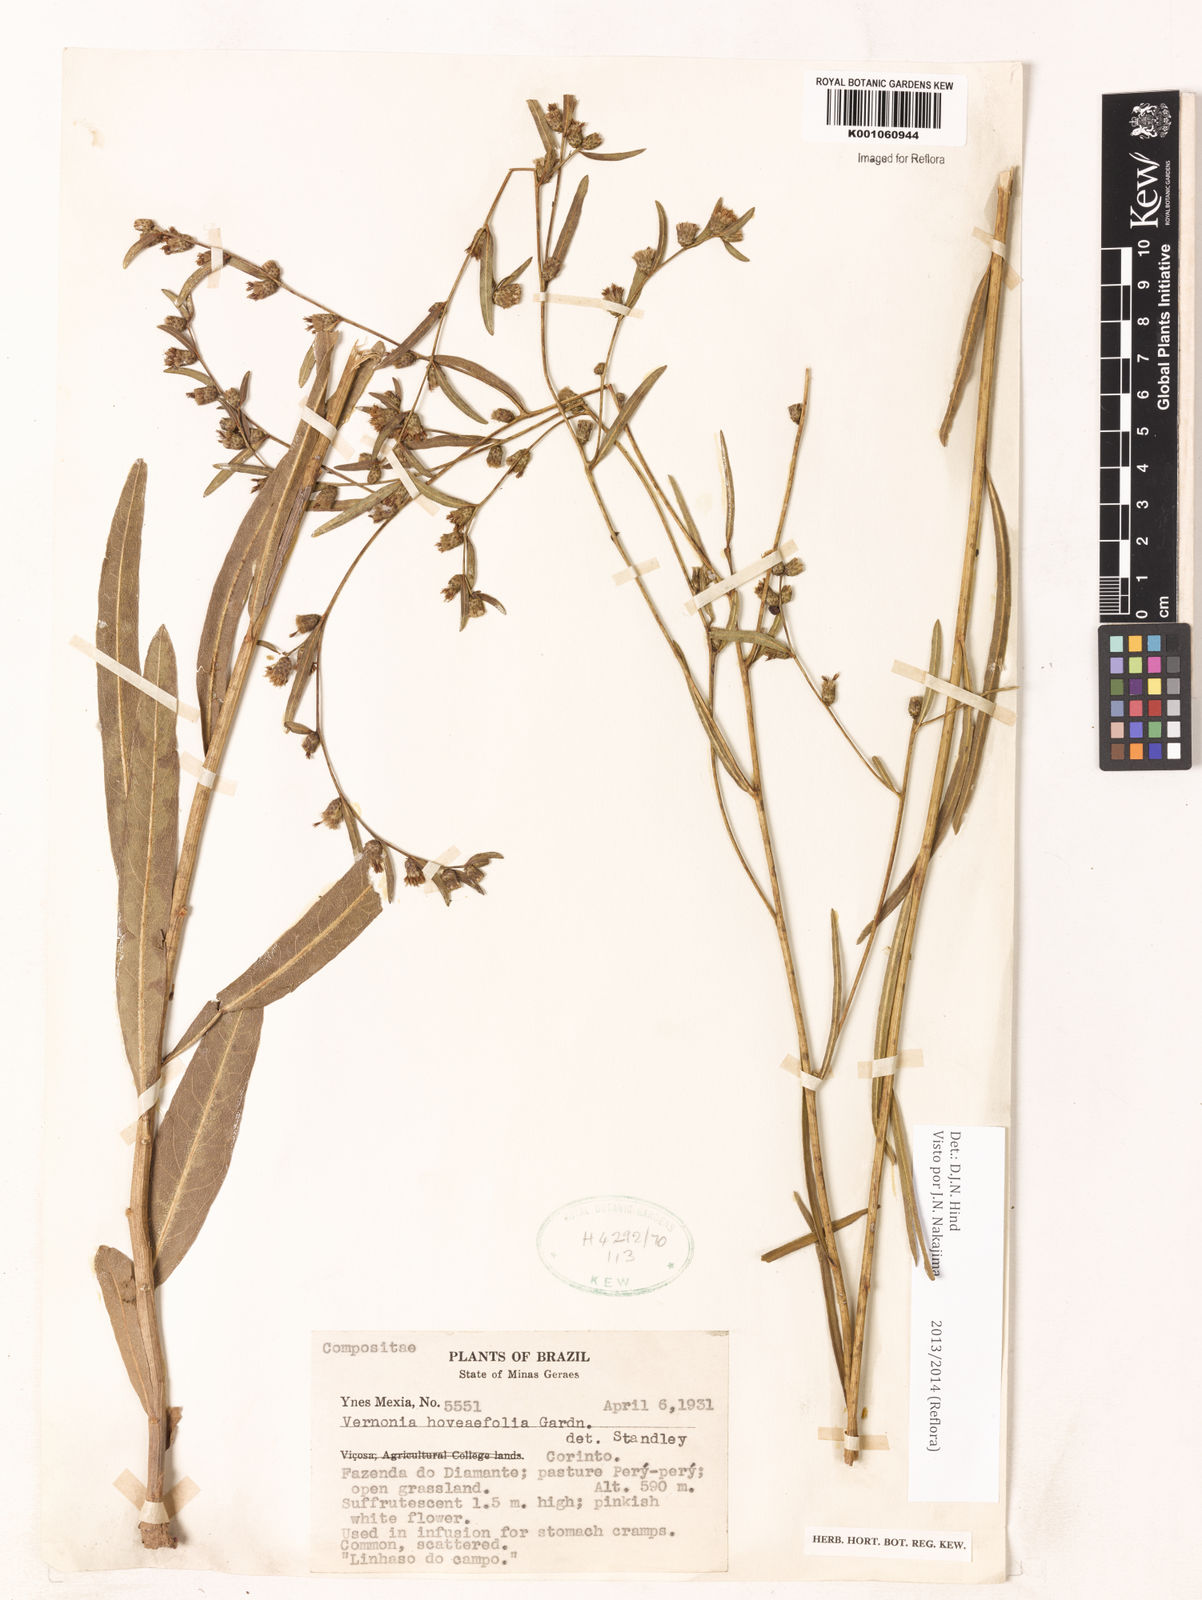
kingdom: Plantae
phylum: Tracheophyta
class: Magnoliopsida
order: Asterales
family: Asteraceae
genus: Lessingianthus
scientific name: Lessingianthus hoveifolius
